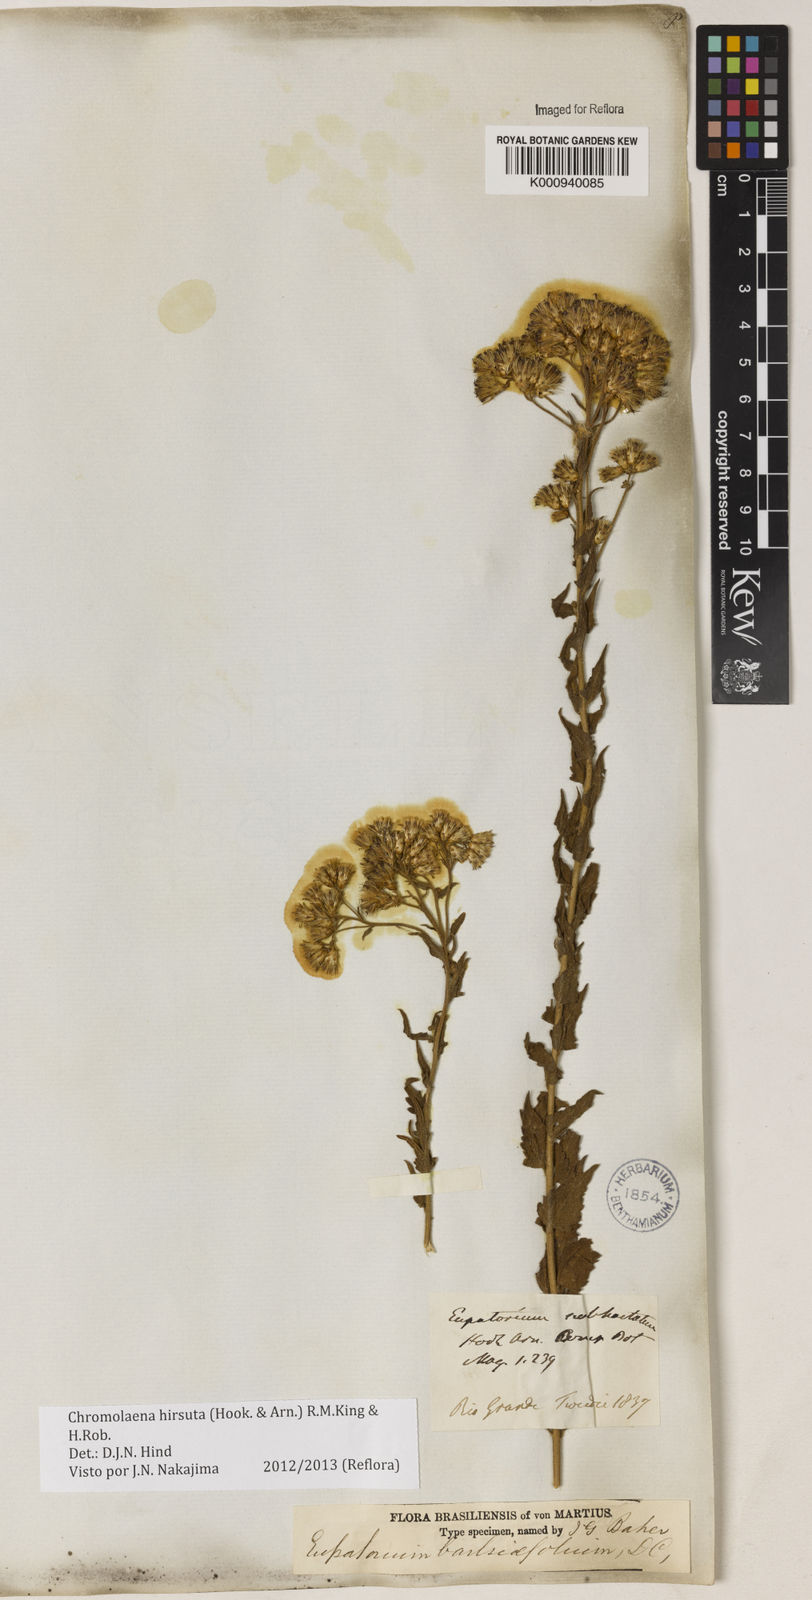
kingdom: Plantae
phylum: Tracheophyta
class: Magnoliopsida
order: Asterales
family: Asteraceae
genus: Chromolaena
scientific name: Chromolaena hirsuta
